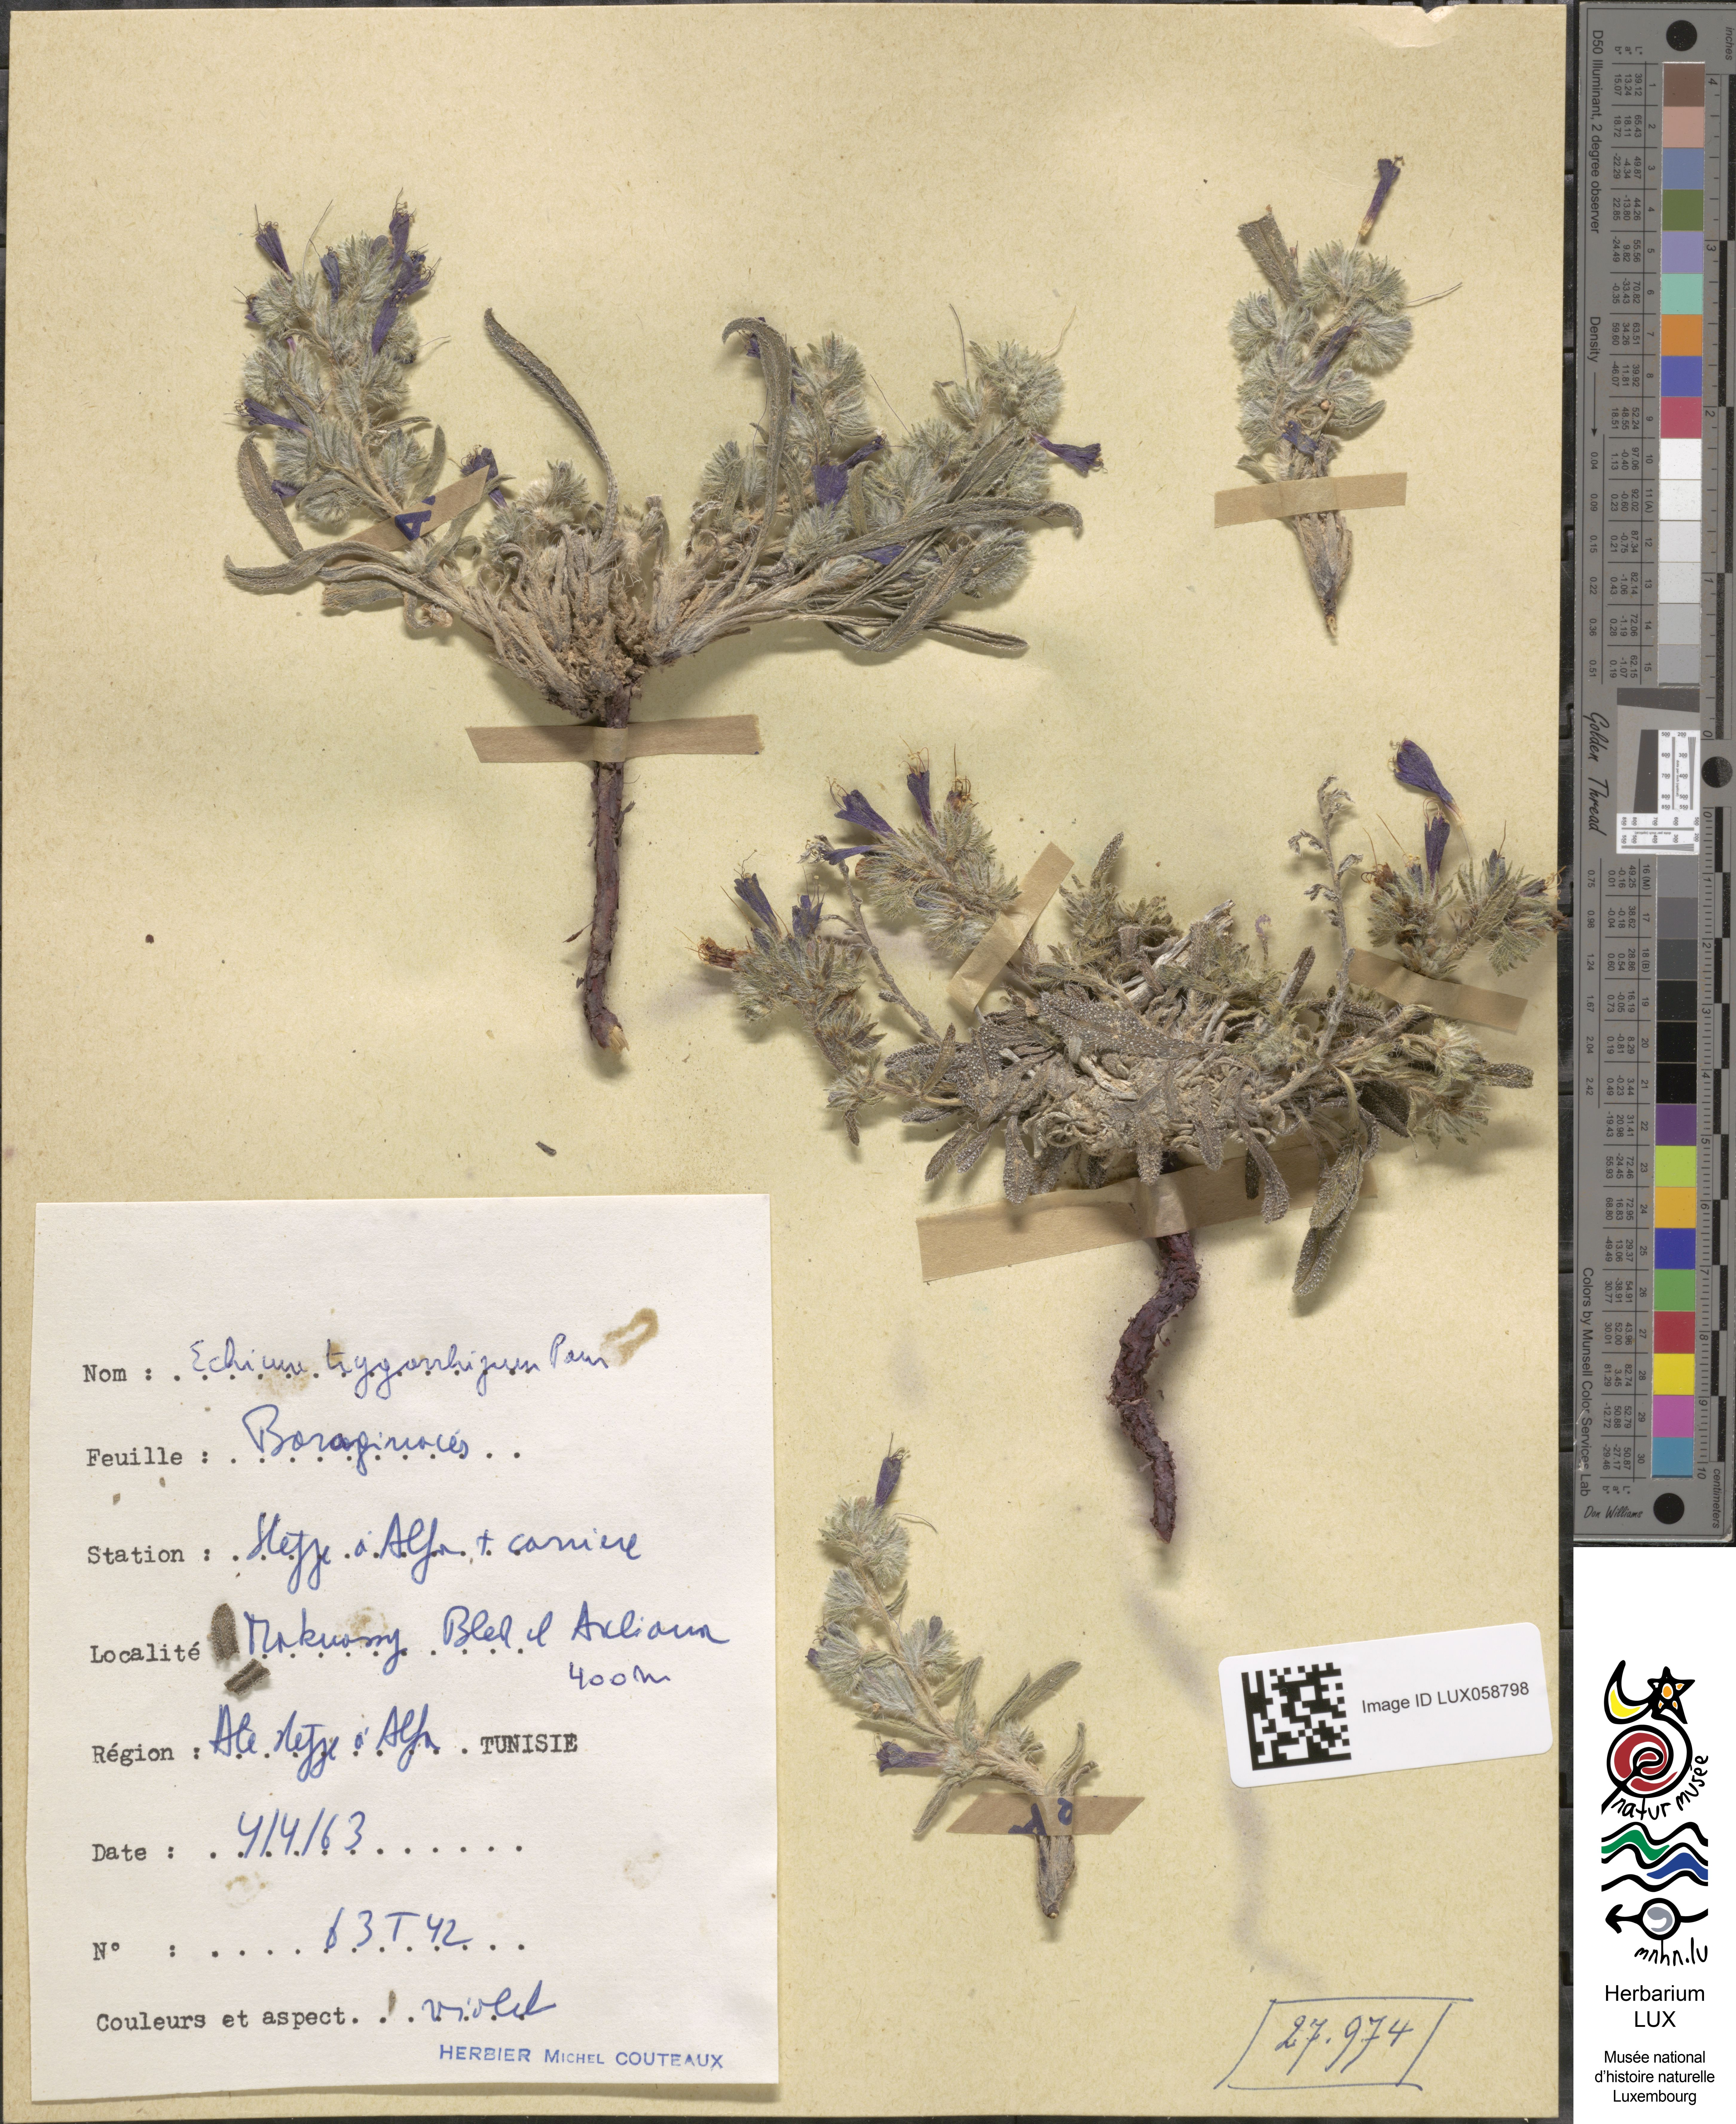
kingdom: Plantae
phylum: Tracheophyta
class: Magnoliopsida
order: Boraginales
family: Boraginaceae
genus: Echium
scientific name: Echium trygorrhizum
